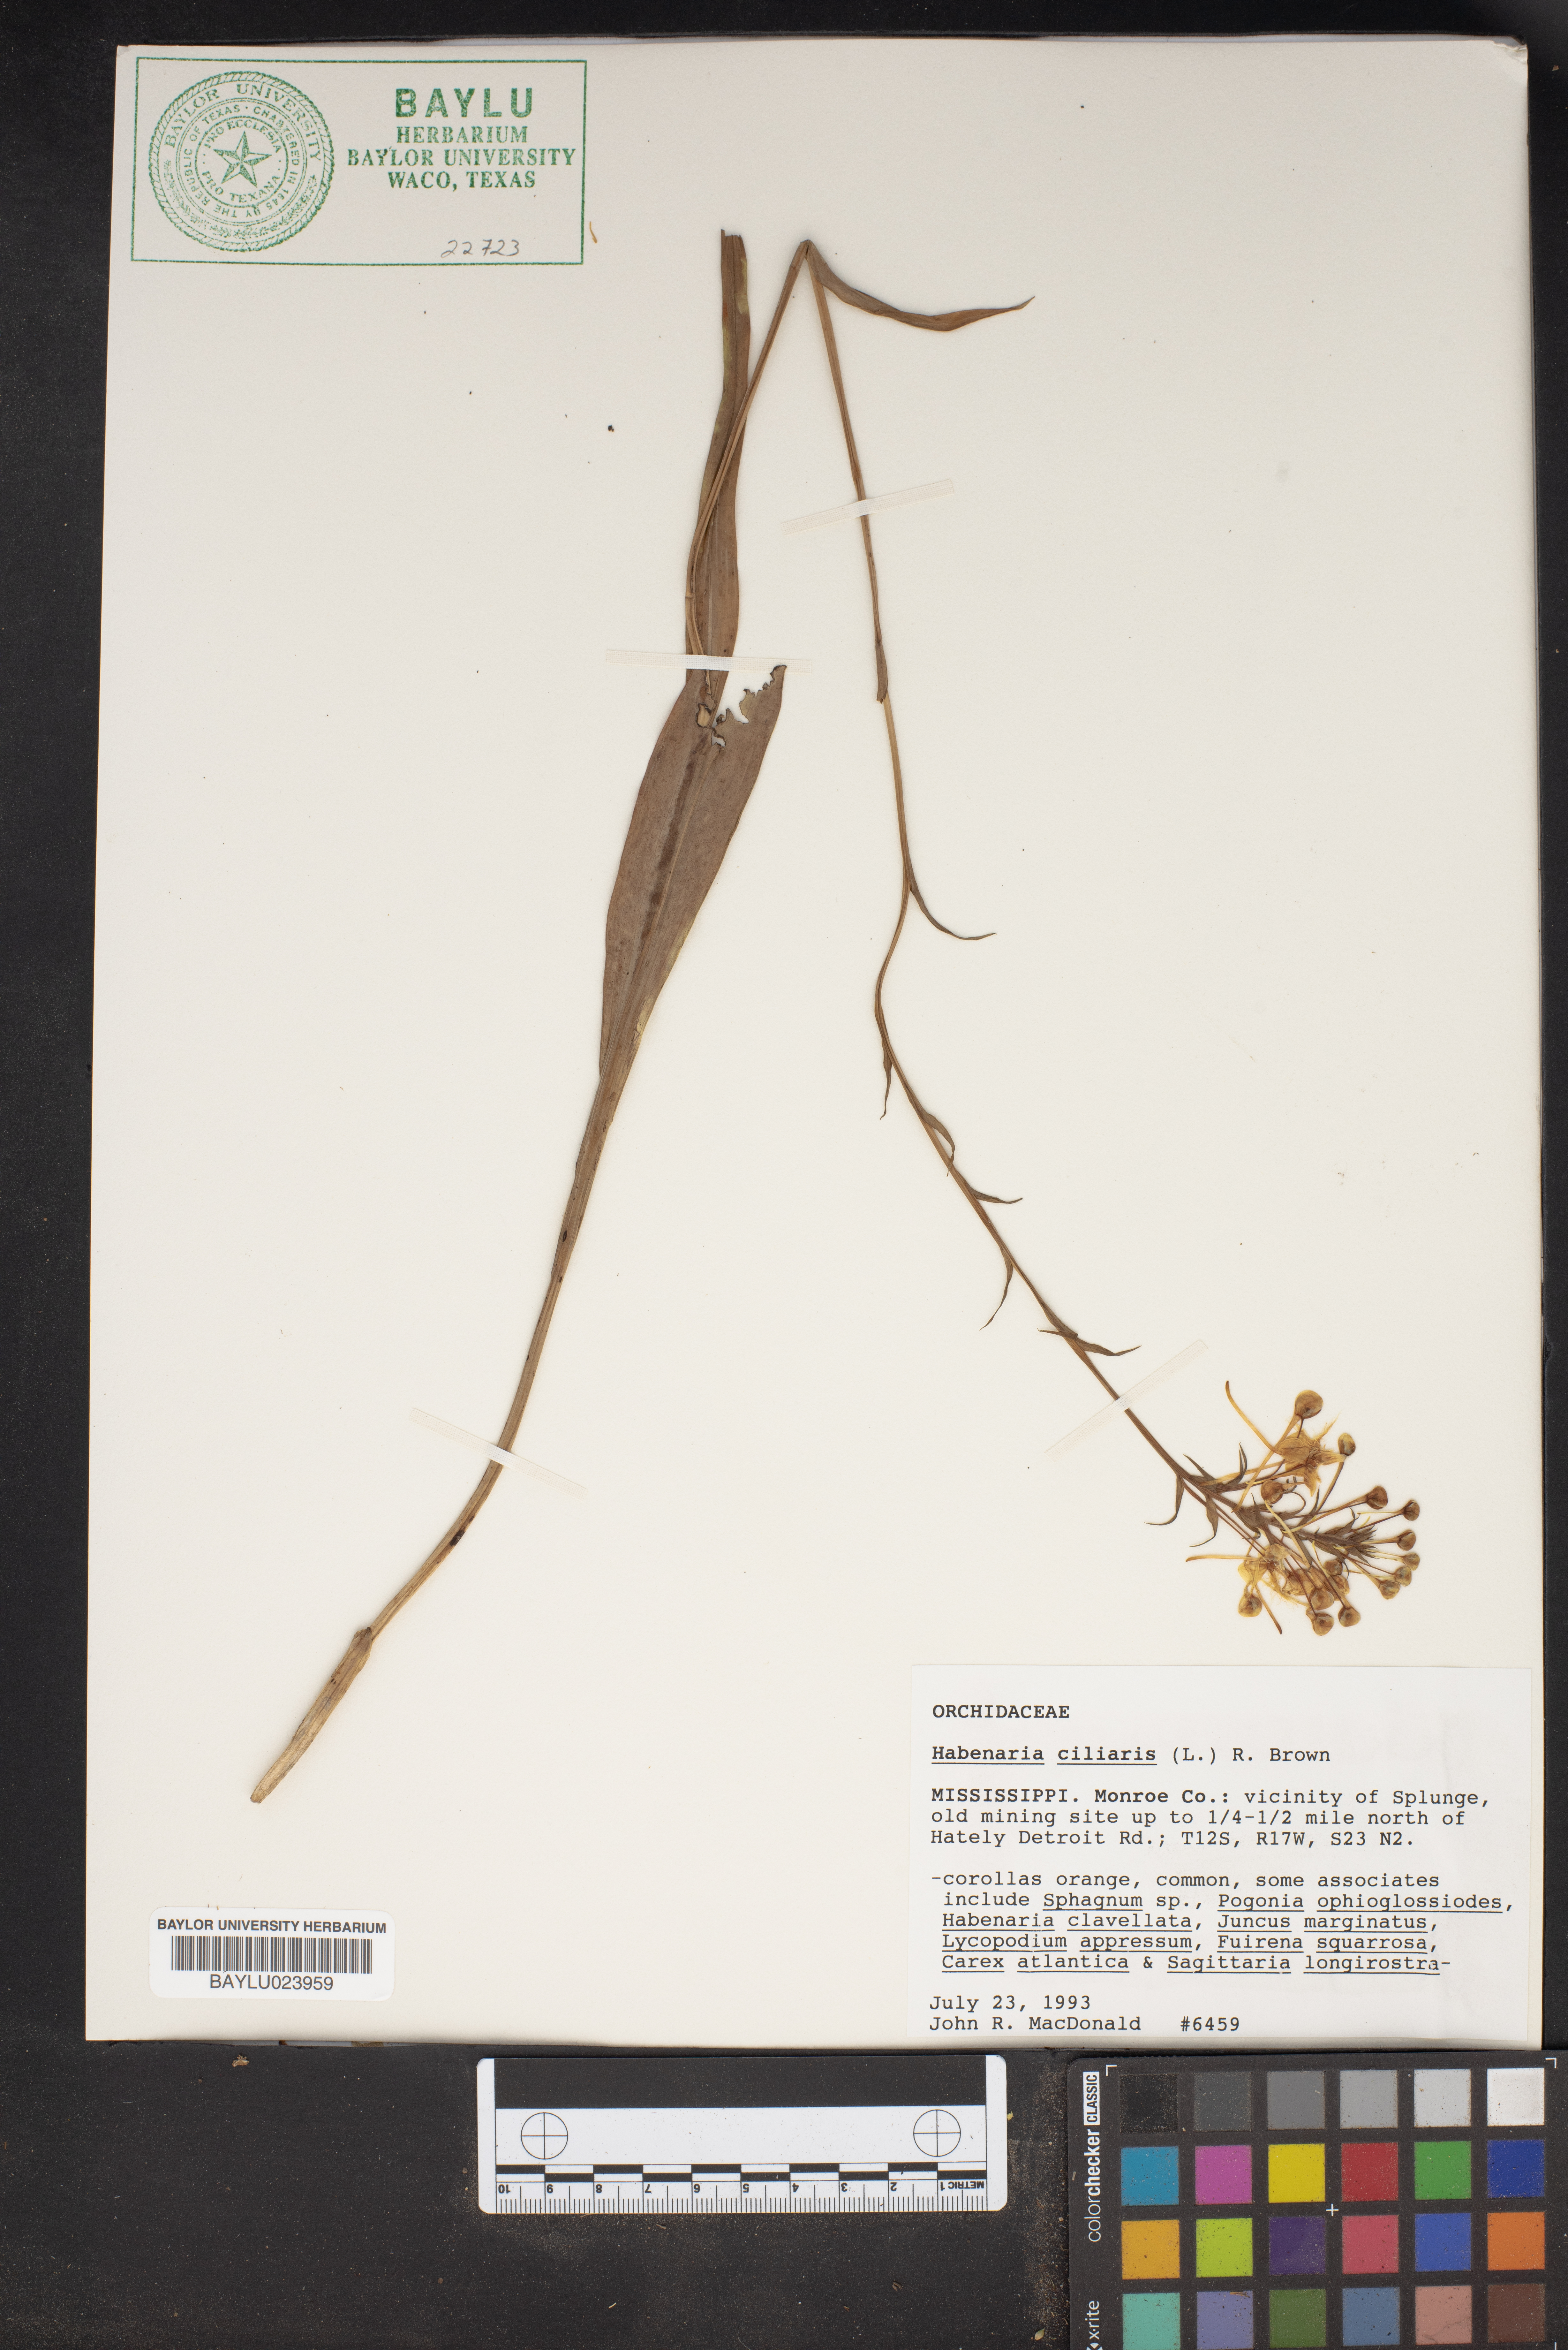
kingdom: Plantae
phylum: Tracheophyta
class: Liliopsida
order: Asparagales
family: Orchidaceae
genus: Platanthera
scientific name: Platanthera ciliaris
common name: Yellow fringed orchid
